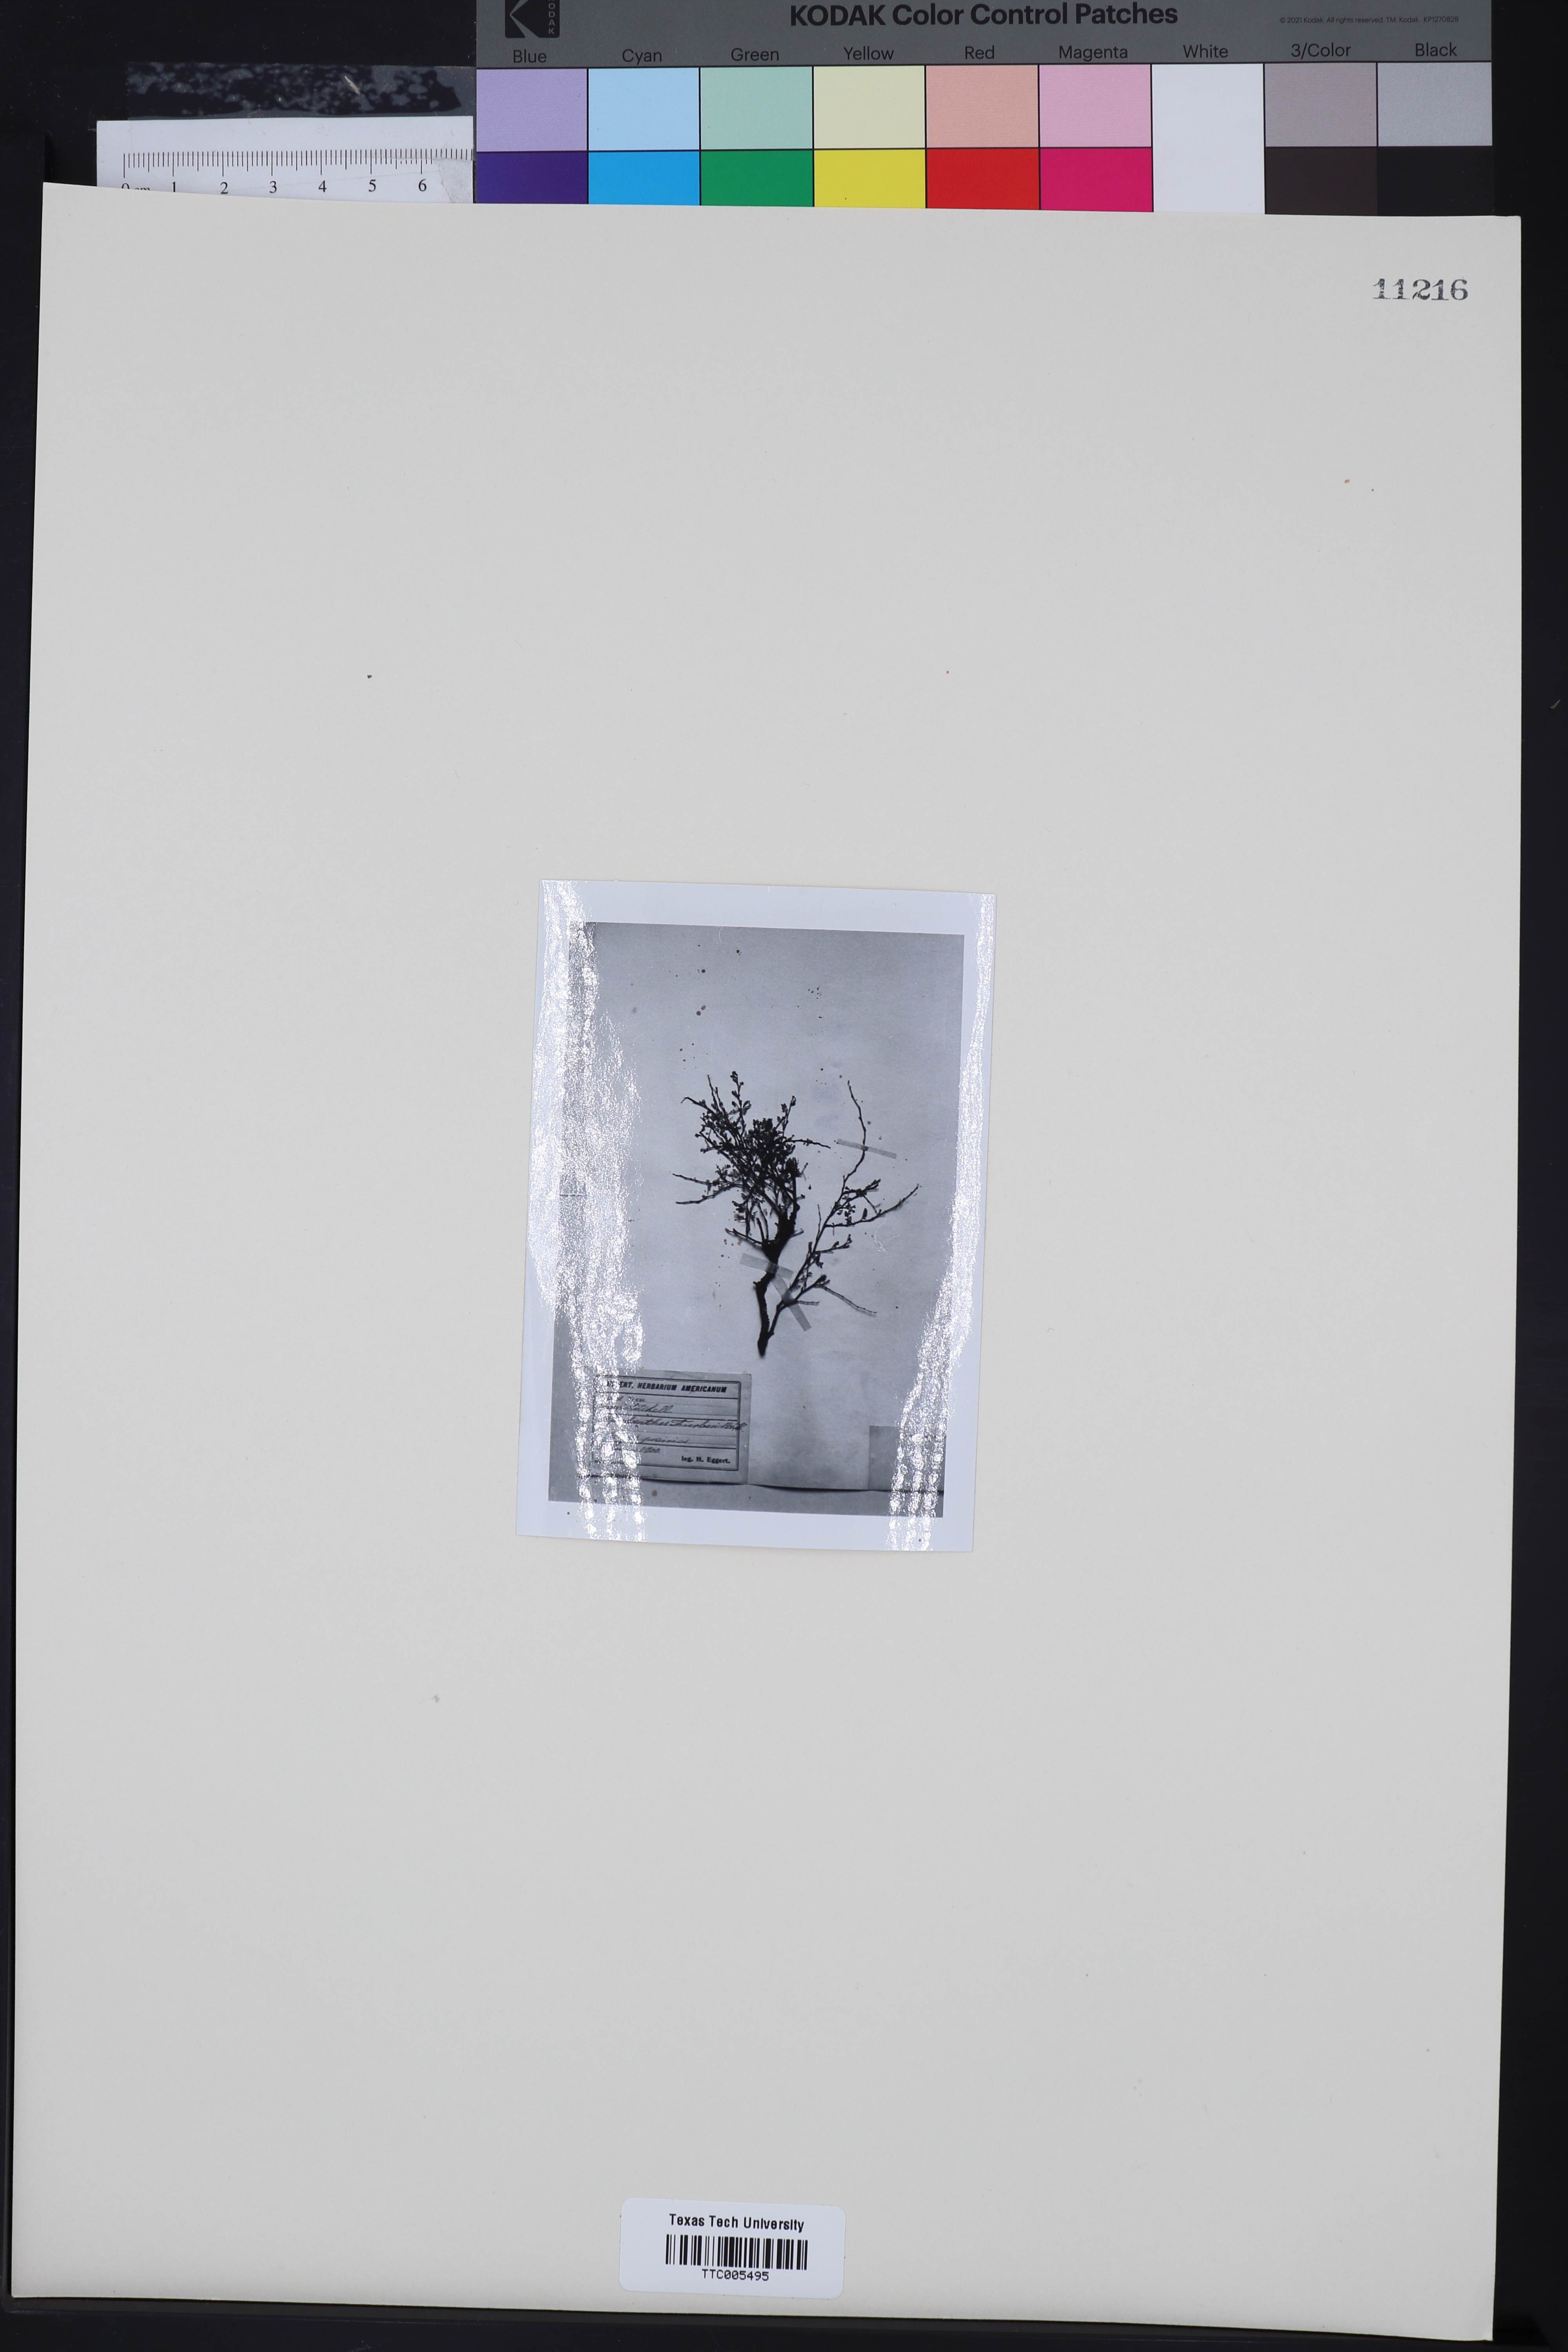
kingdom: Plantae
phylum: Tracheophyta
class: Magnoliopsida
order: Cucurbitales
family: Apodanthaceae
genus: Pilostyles
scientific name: Pilostyles thurberi
